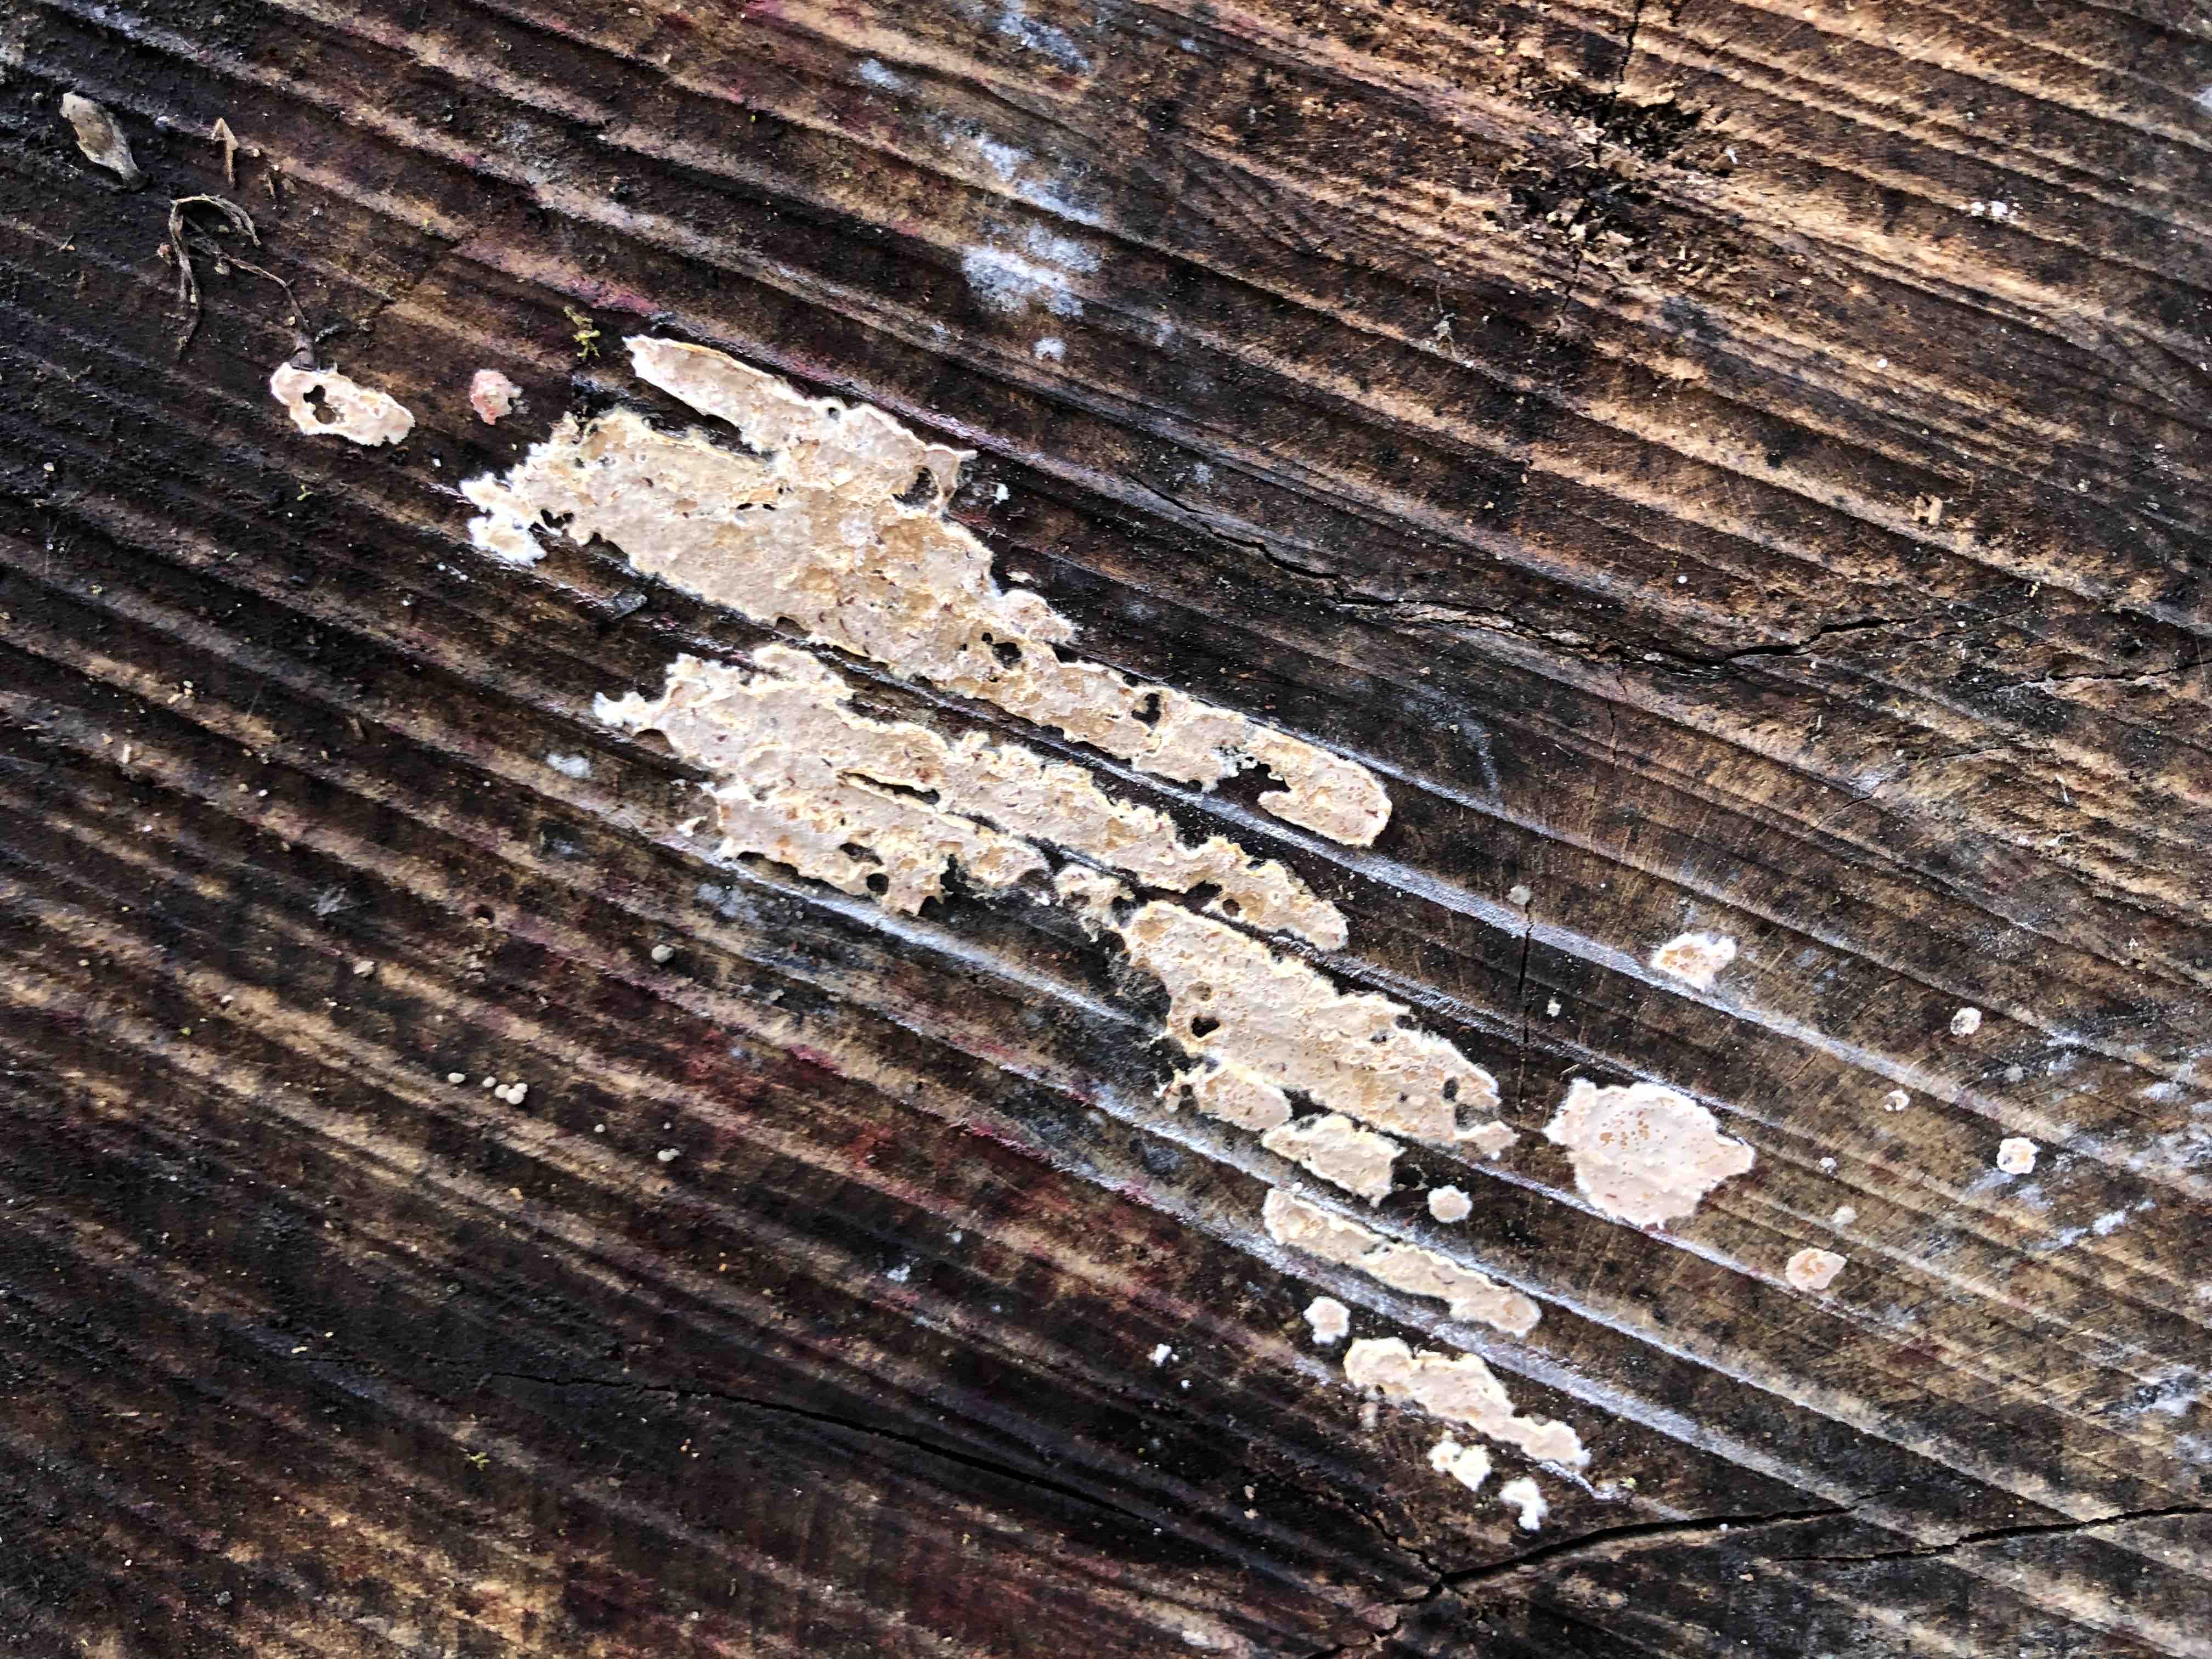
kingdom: Fungi
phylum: Basidiomycota
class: Agaricomycetes
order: Agaricales
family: Physalacriaceae
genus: Cylindrobasidium
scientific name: Cylindrobasidium evolvens
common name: sprækkehinde
